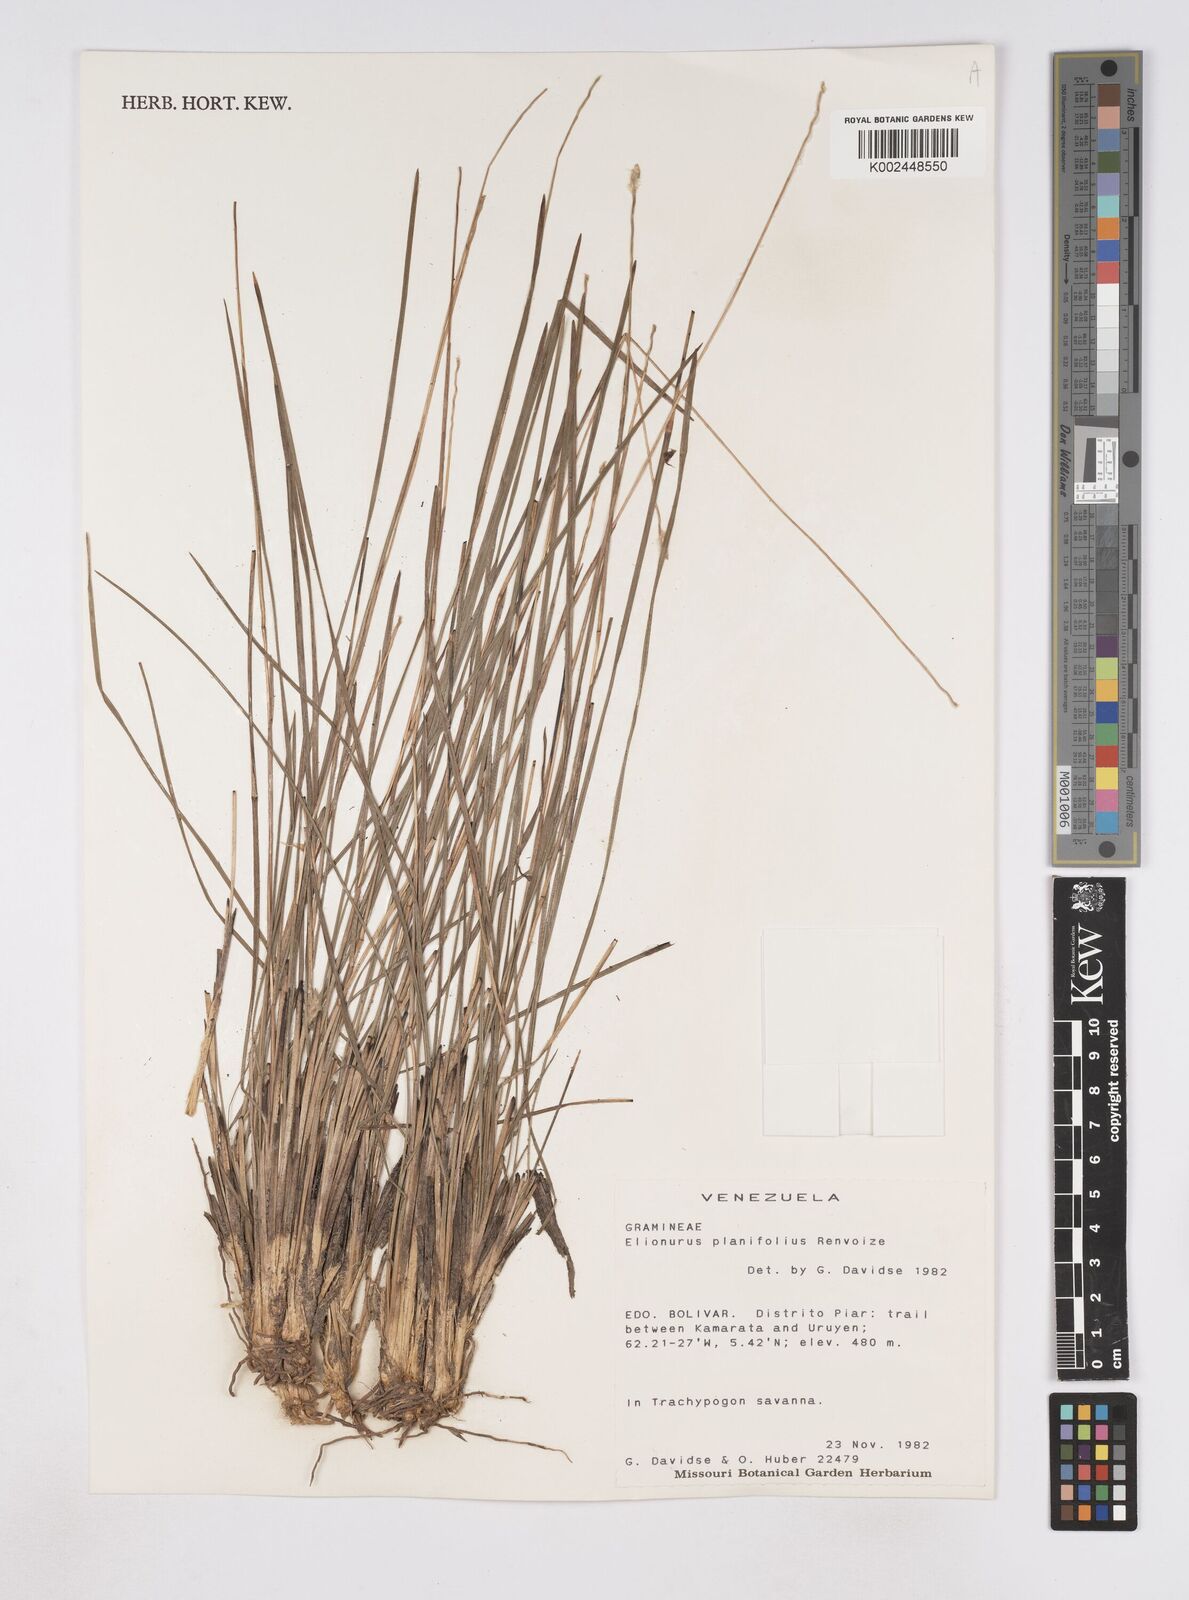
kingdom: Plantae
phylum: Tracheophyta
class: Liliopsida
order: Poales
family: Poaceae
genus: Elionurus
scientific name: Elionurus planifolius
